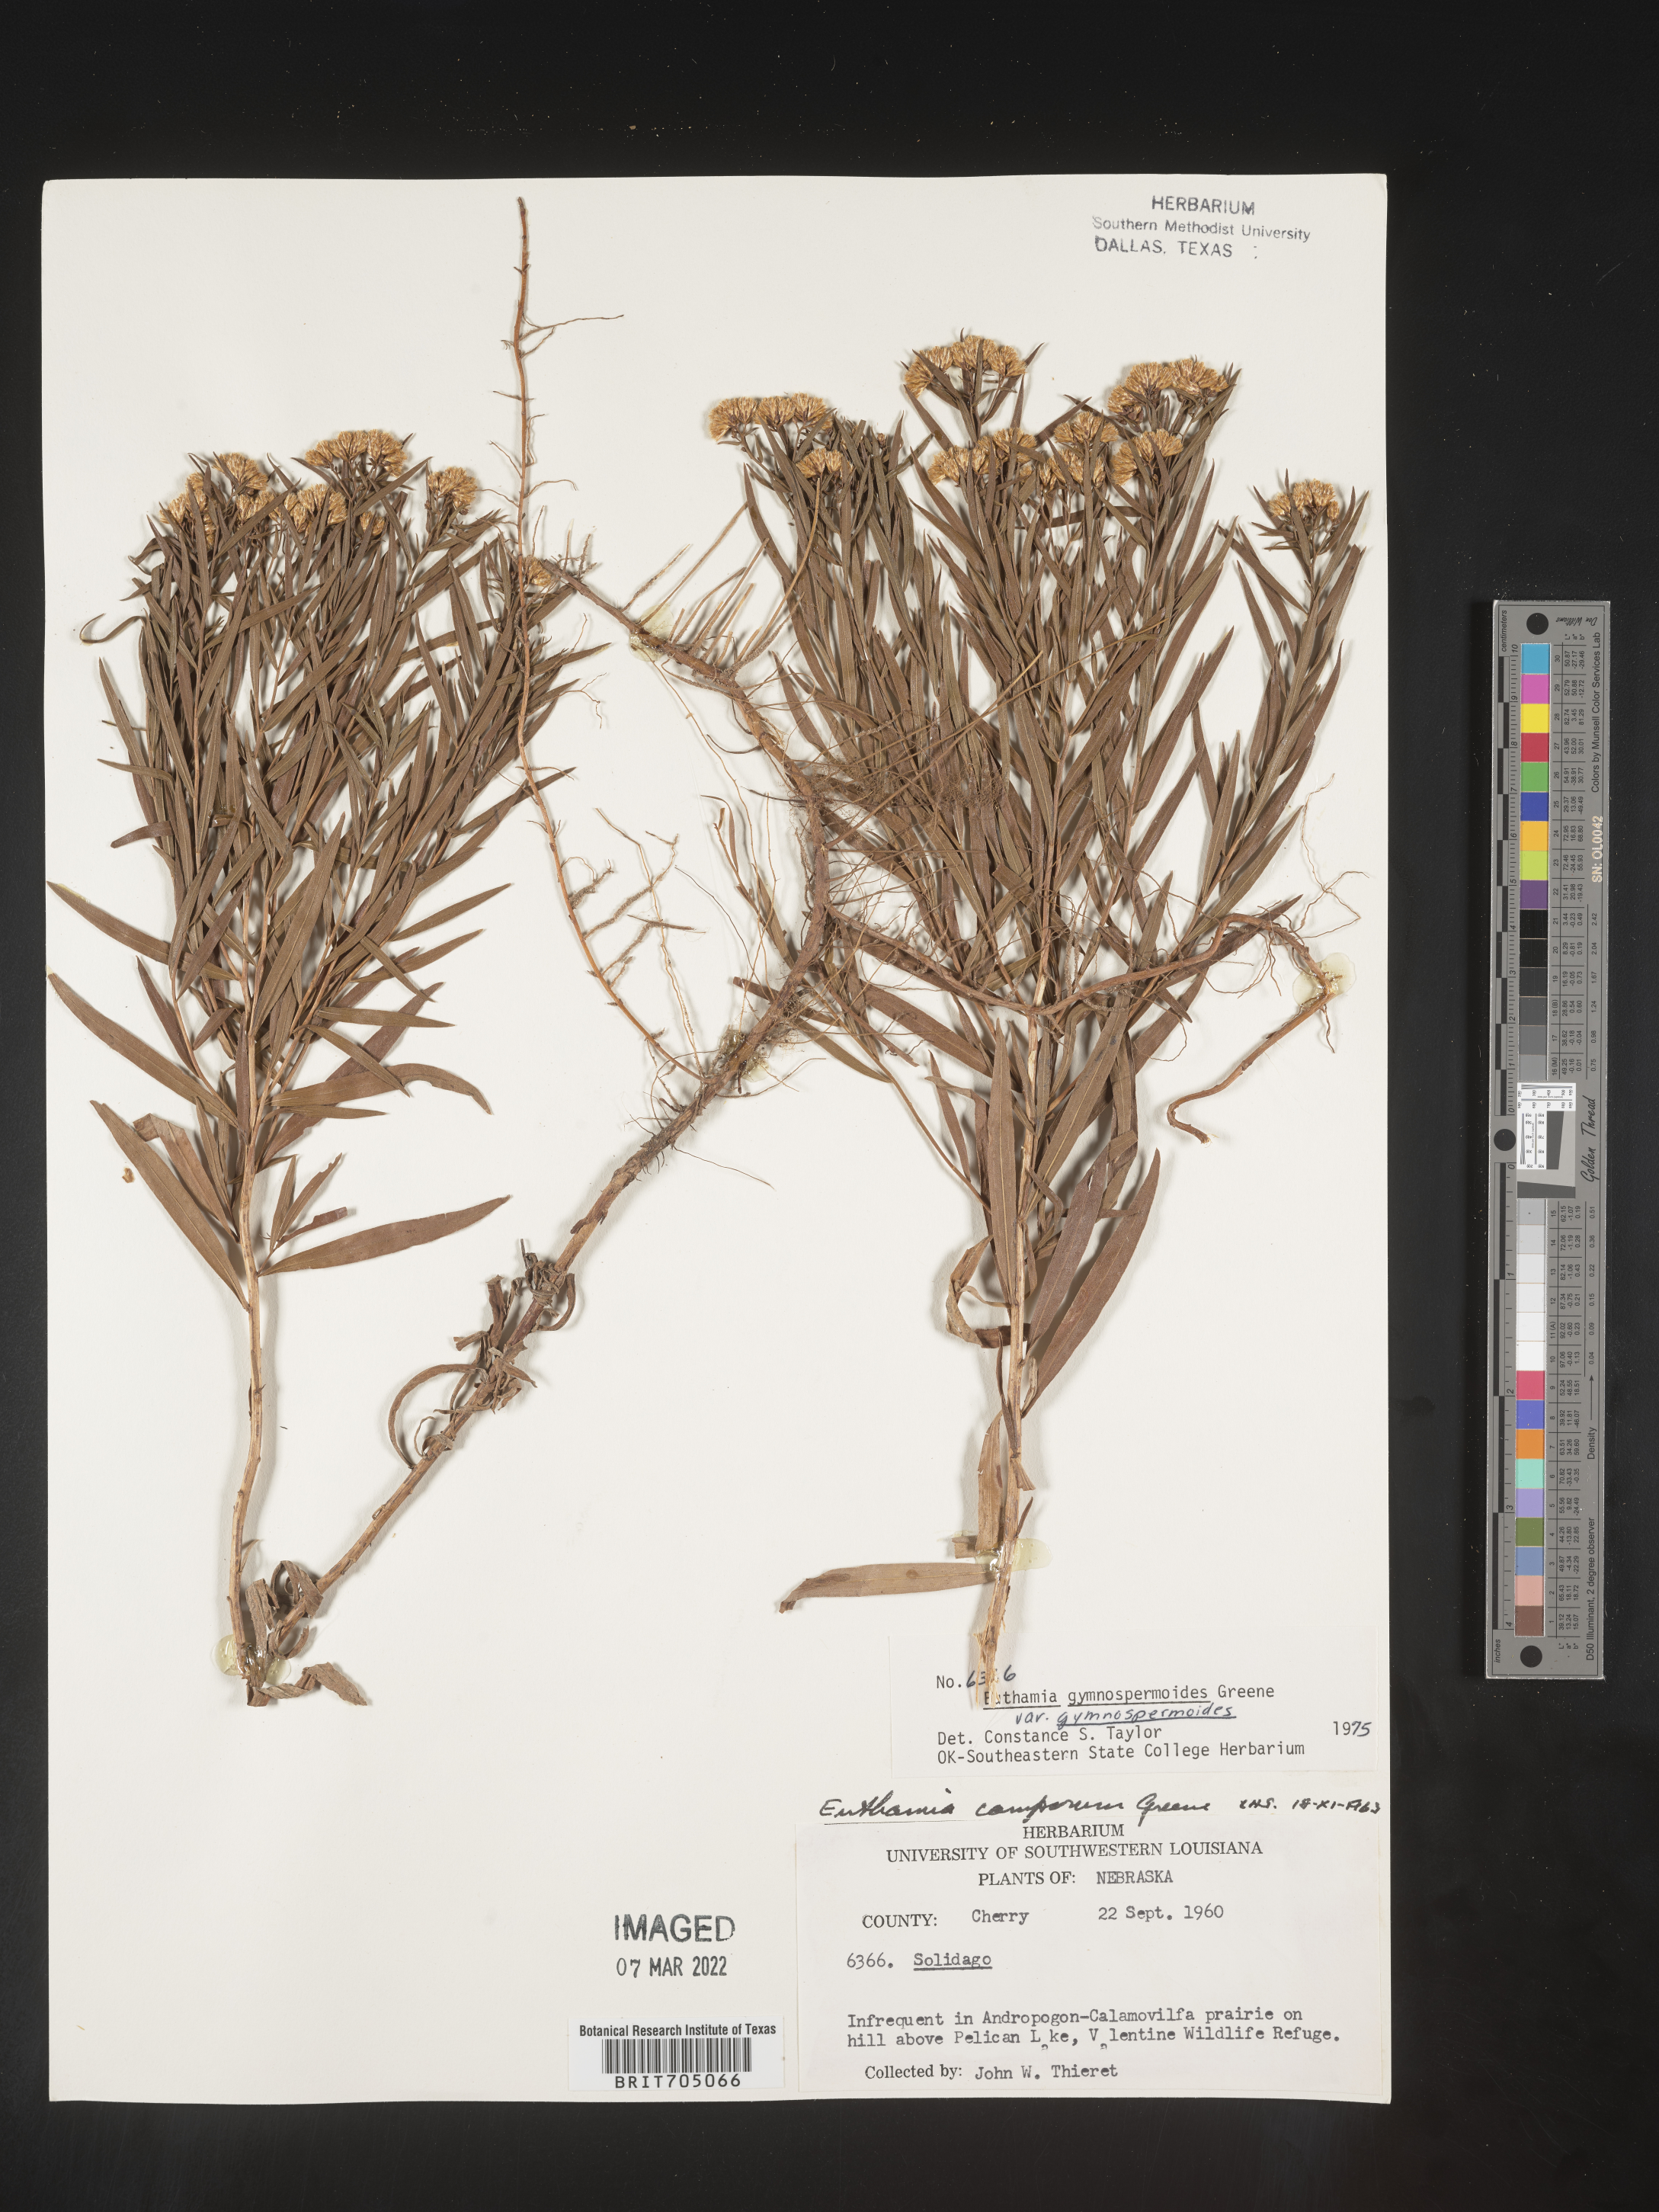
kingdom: Plantae
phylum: Tracheophyta
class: Magnoliopsida
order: Asterales
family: Asteraceae
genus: Euthamia
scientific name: Euthamia gymnospermoides
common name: Great plains goldentop
